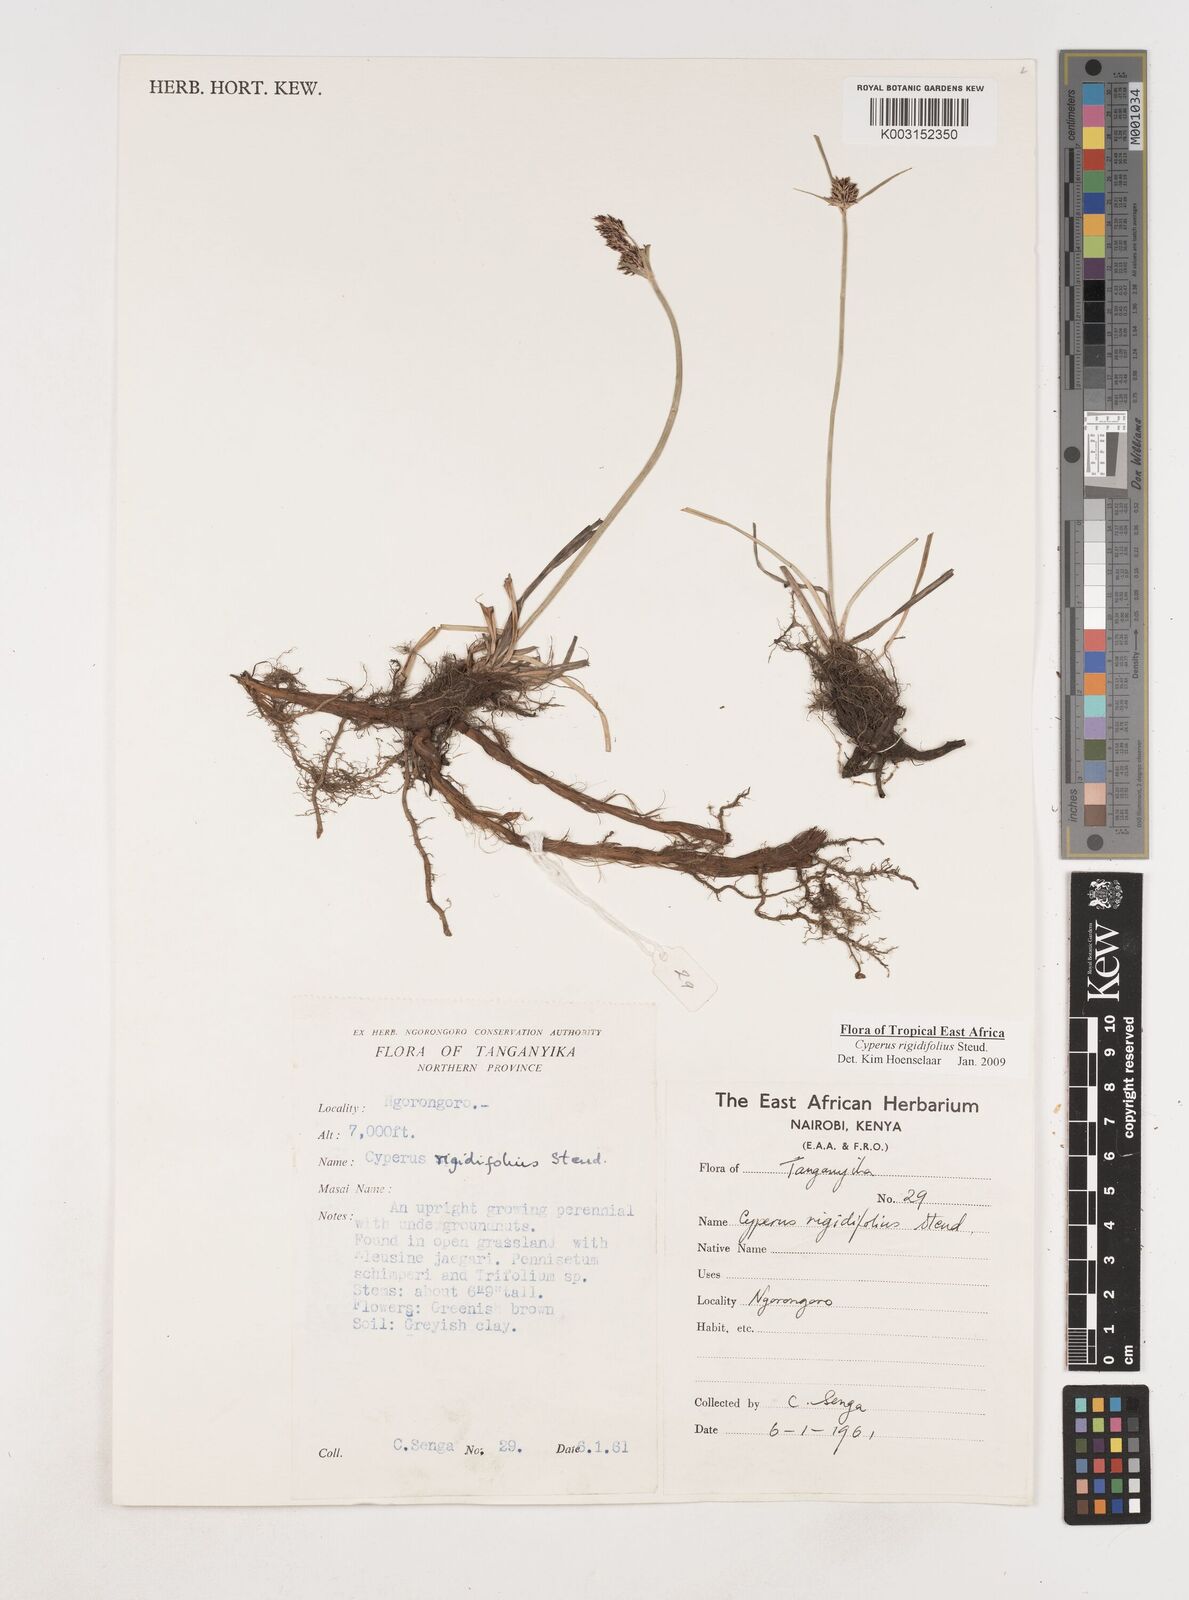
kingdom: Plantae
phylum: Tracheophyta
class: Liliopsida
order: Poales
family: Cyperaceae
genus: Cyperus
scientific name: Cyperus rigidifolius
